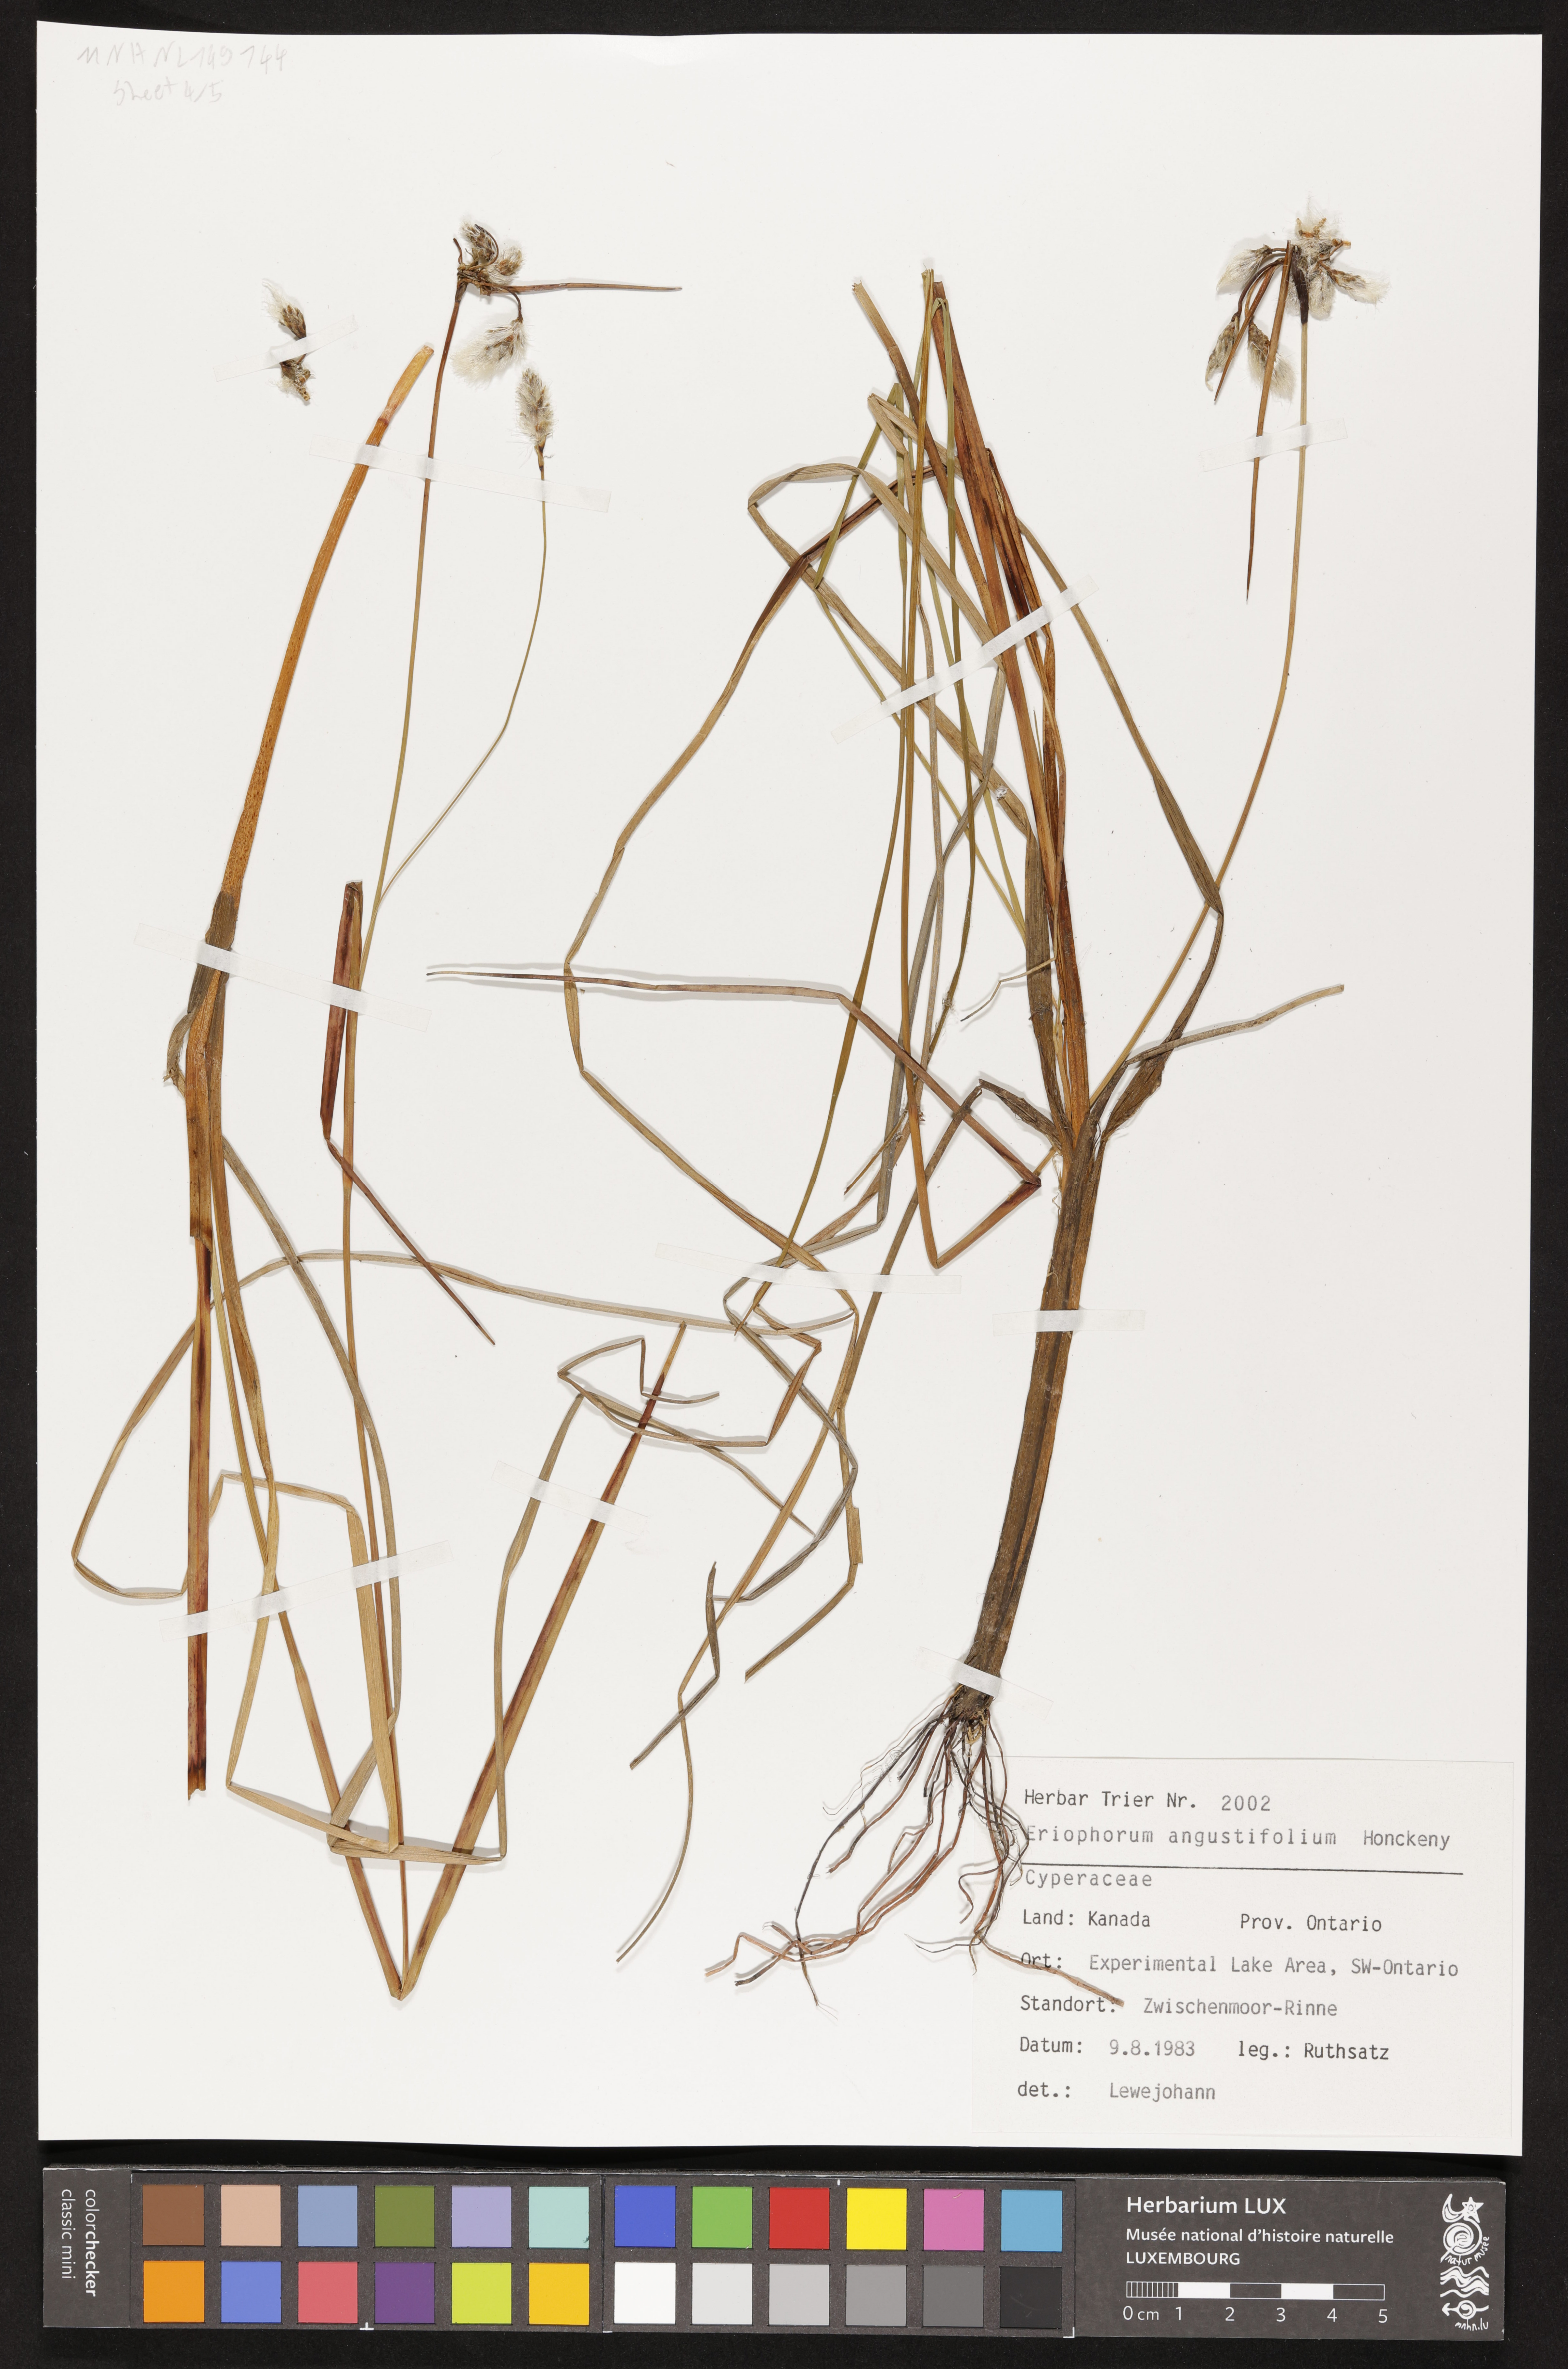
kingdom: Plantae
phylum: Tracheophyta
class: Liliopsida
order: Poales
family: Cyperaceae
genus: Eriophorum
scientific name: Eriophorum angustifolium
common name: Common cottongrass
